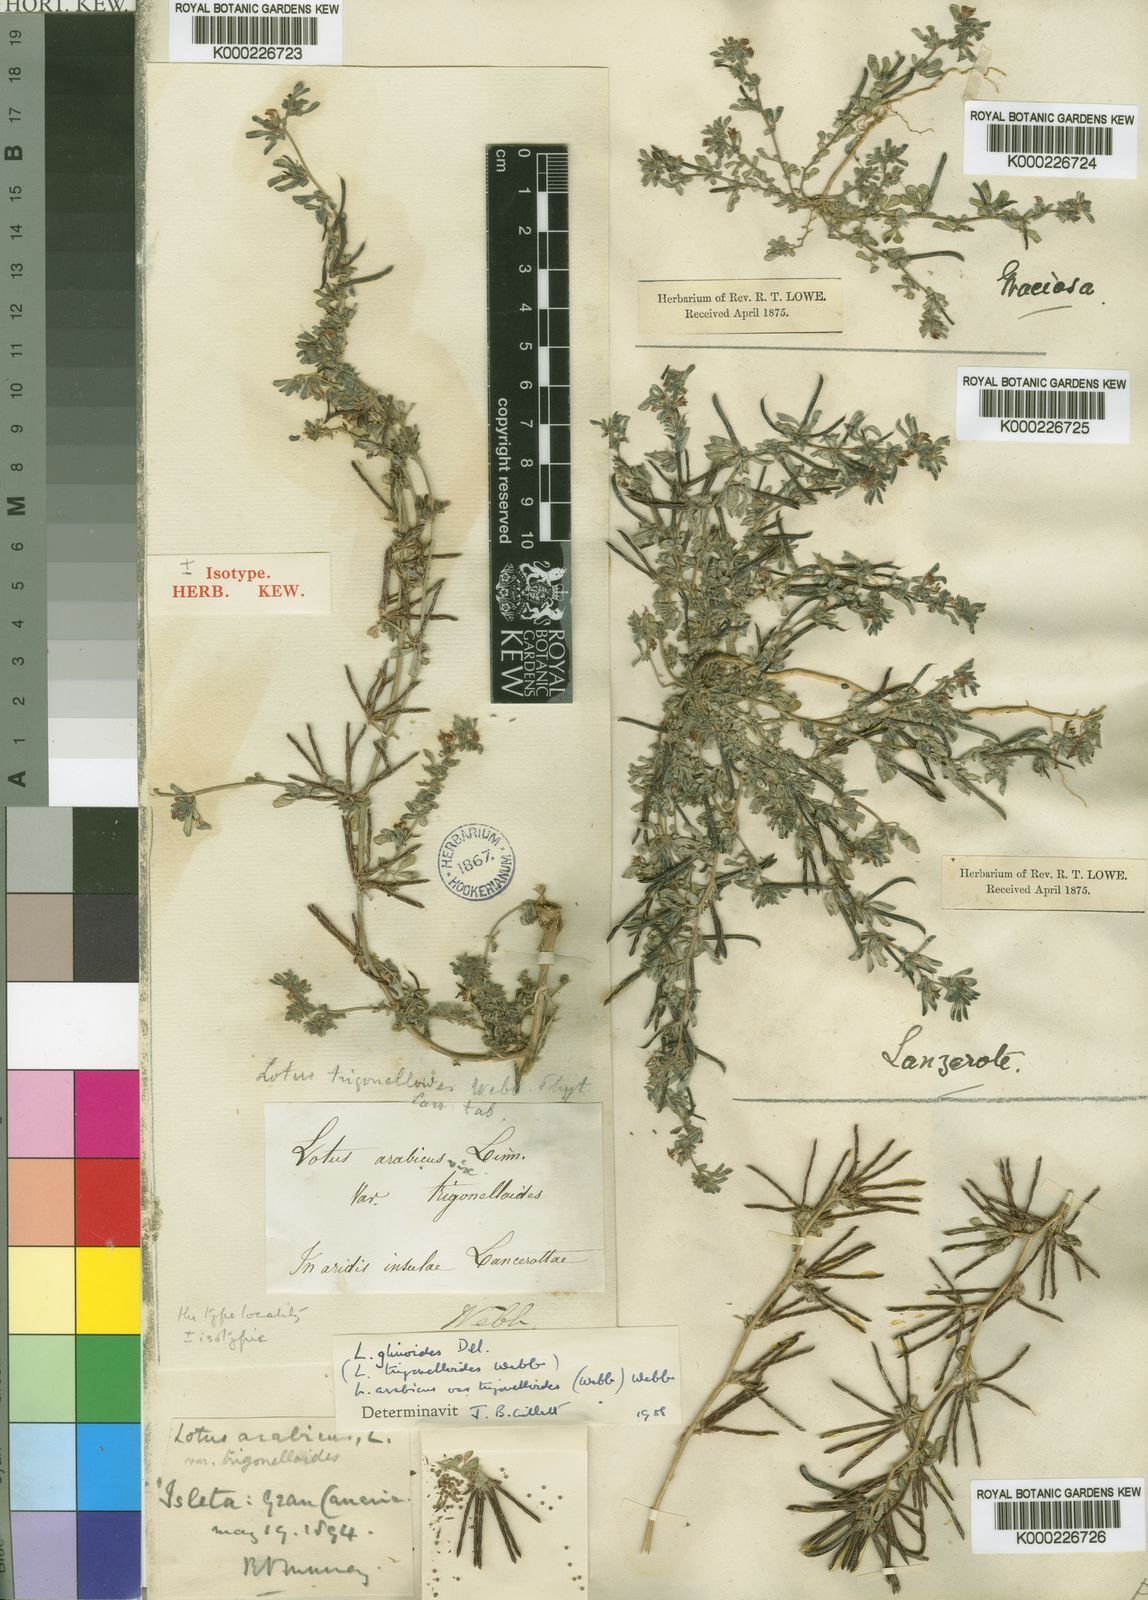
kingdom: Plantae
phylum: Tracheophyta
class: Magnoliopsida
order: Fabales
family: Fabaceae
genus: Lotus
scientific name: Lotus
